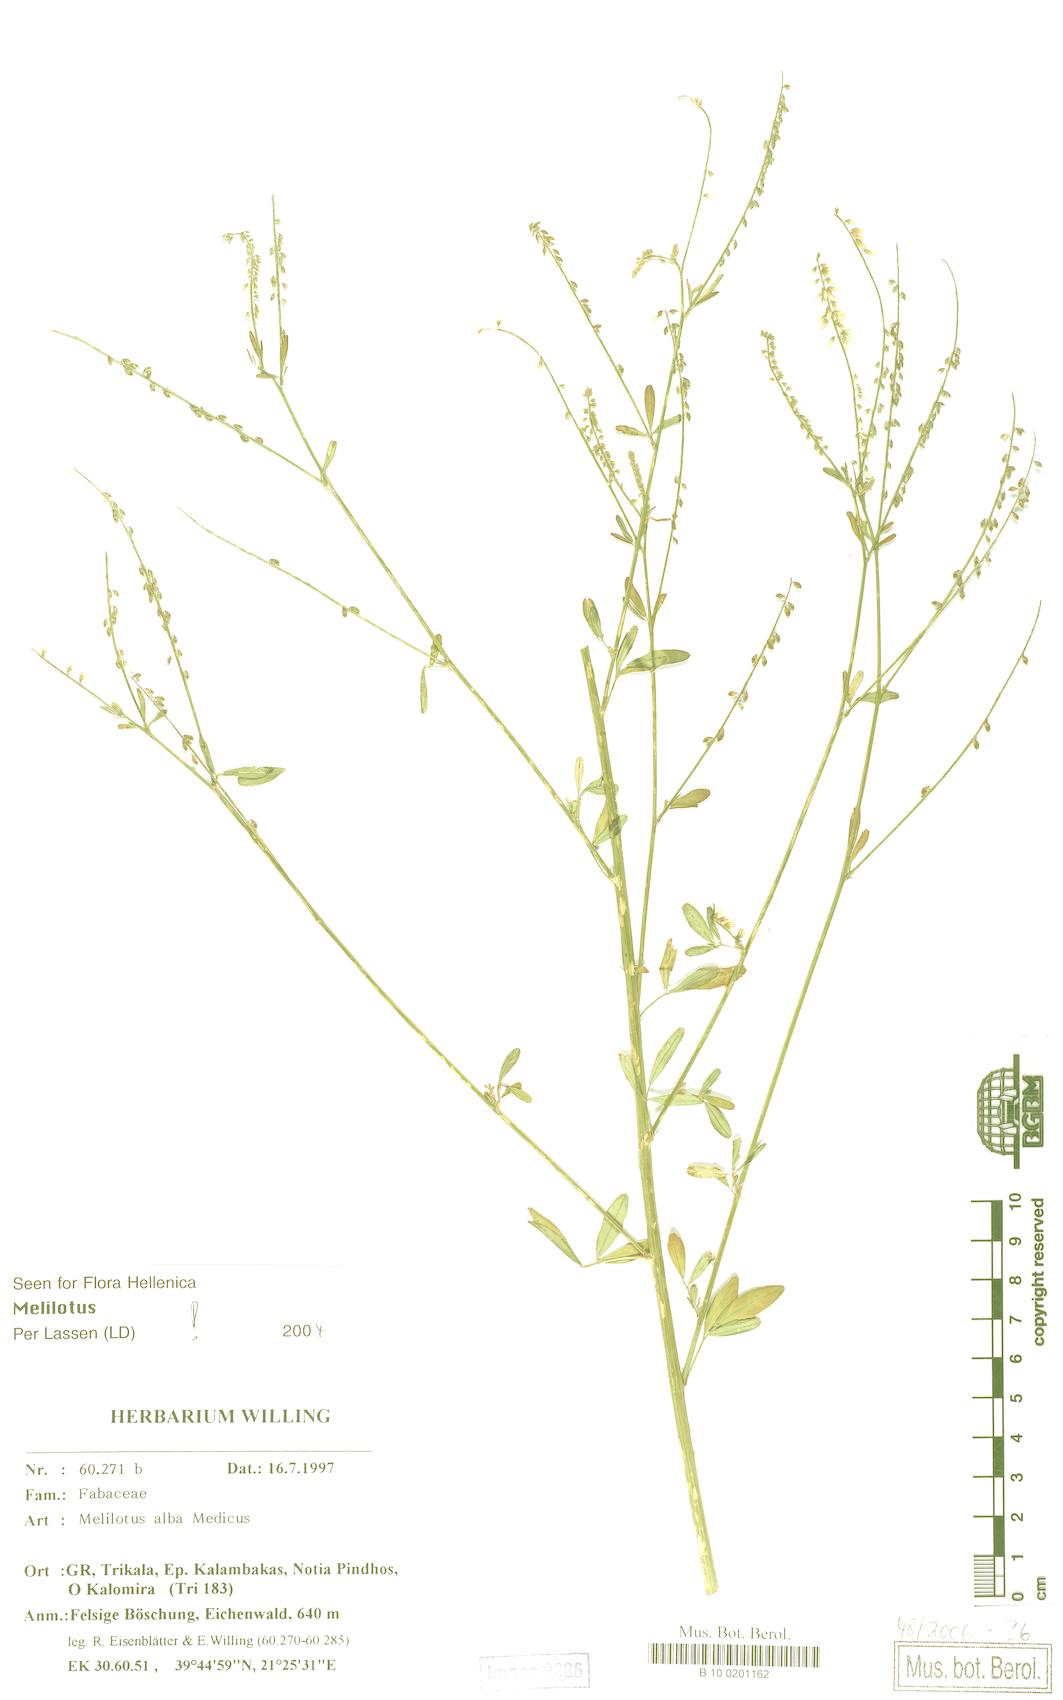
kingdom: Plantae
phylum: Tracheophyta
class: Magnoliopsida
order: Fabales
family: Fabaceae
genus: Melilotus
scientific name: Melilotus albus
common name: White melilot
